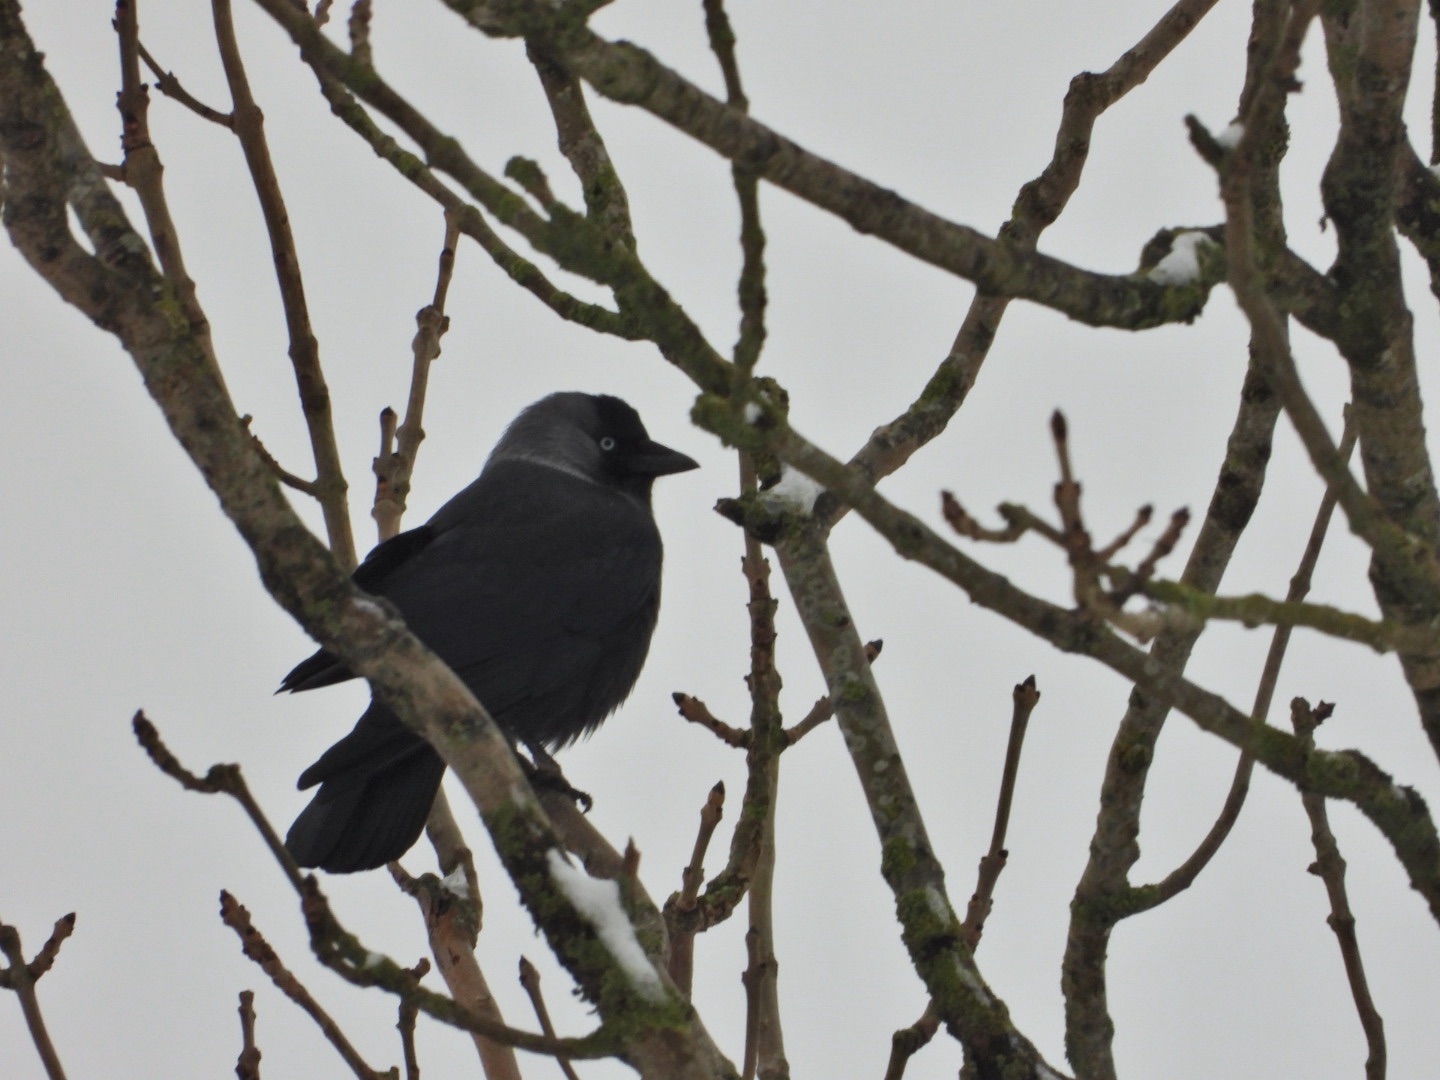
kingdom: Animalia
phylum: Chordata
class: Aves
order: Passeriformes
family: Corvidae
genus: Coloeus
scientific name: Coloeus monedula
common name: Allike
